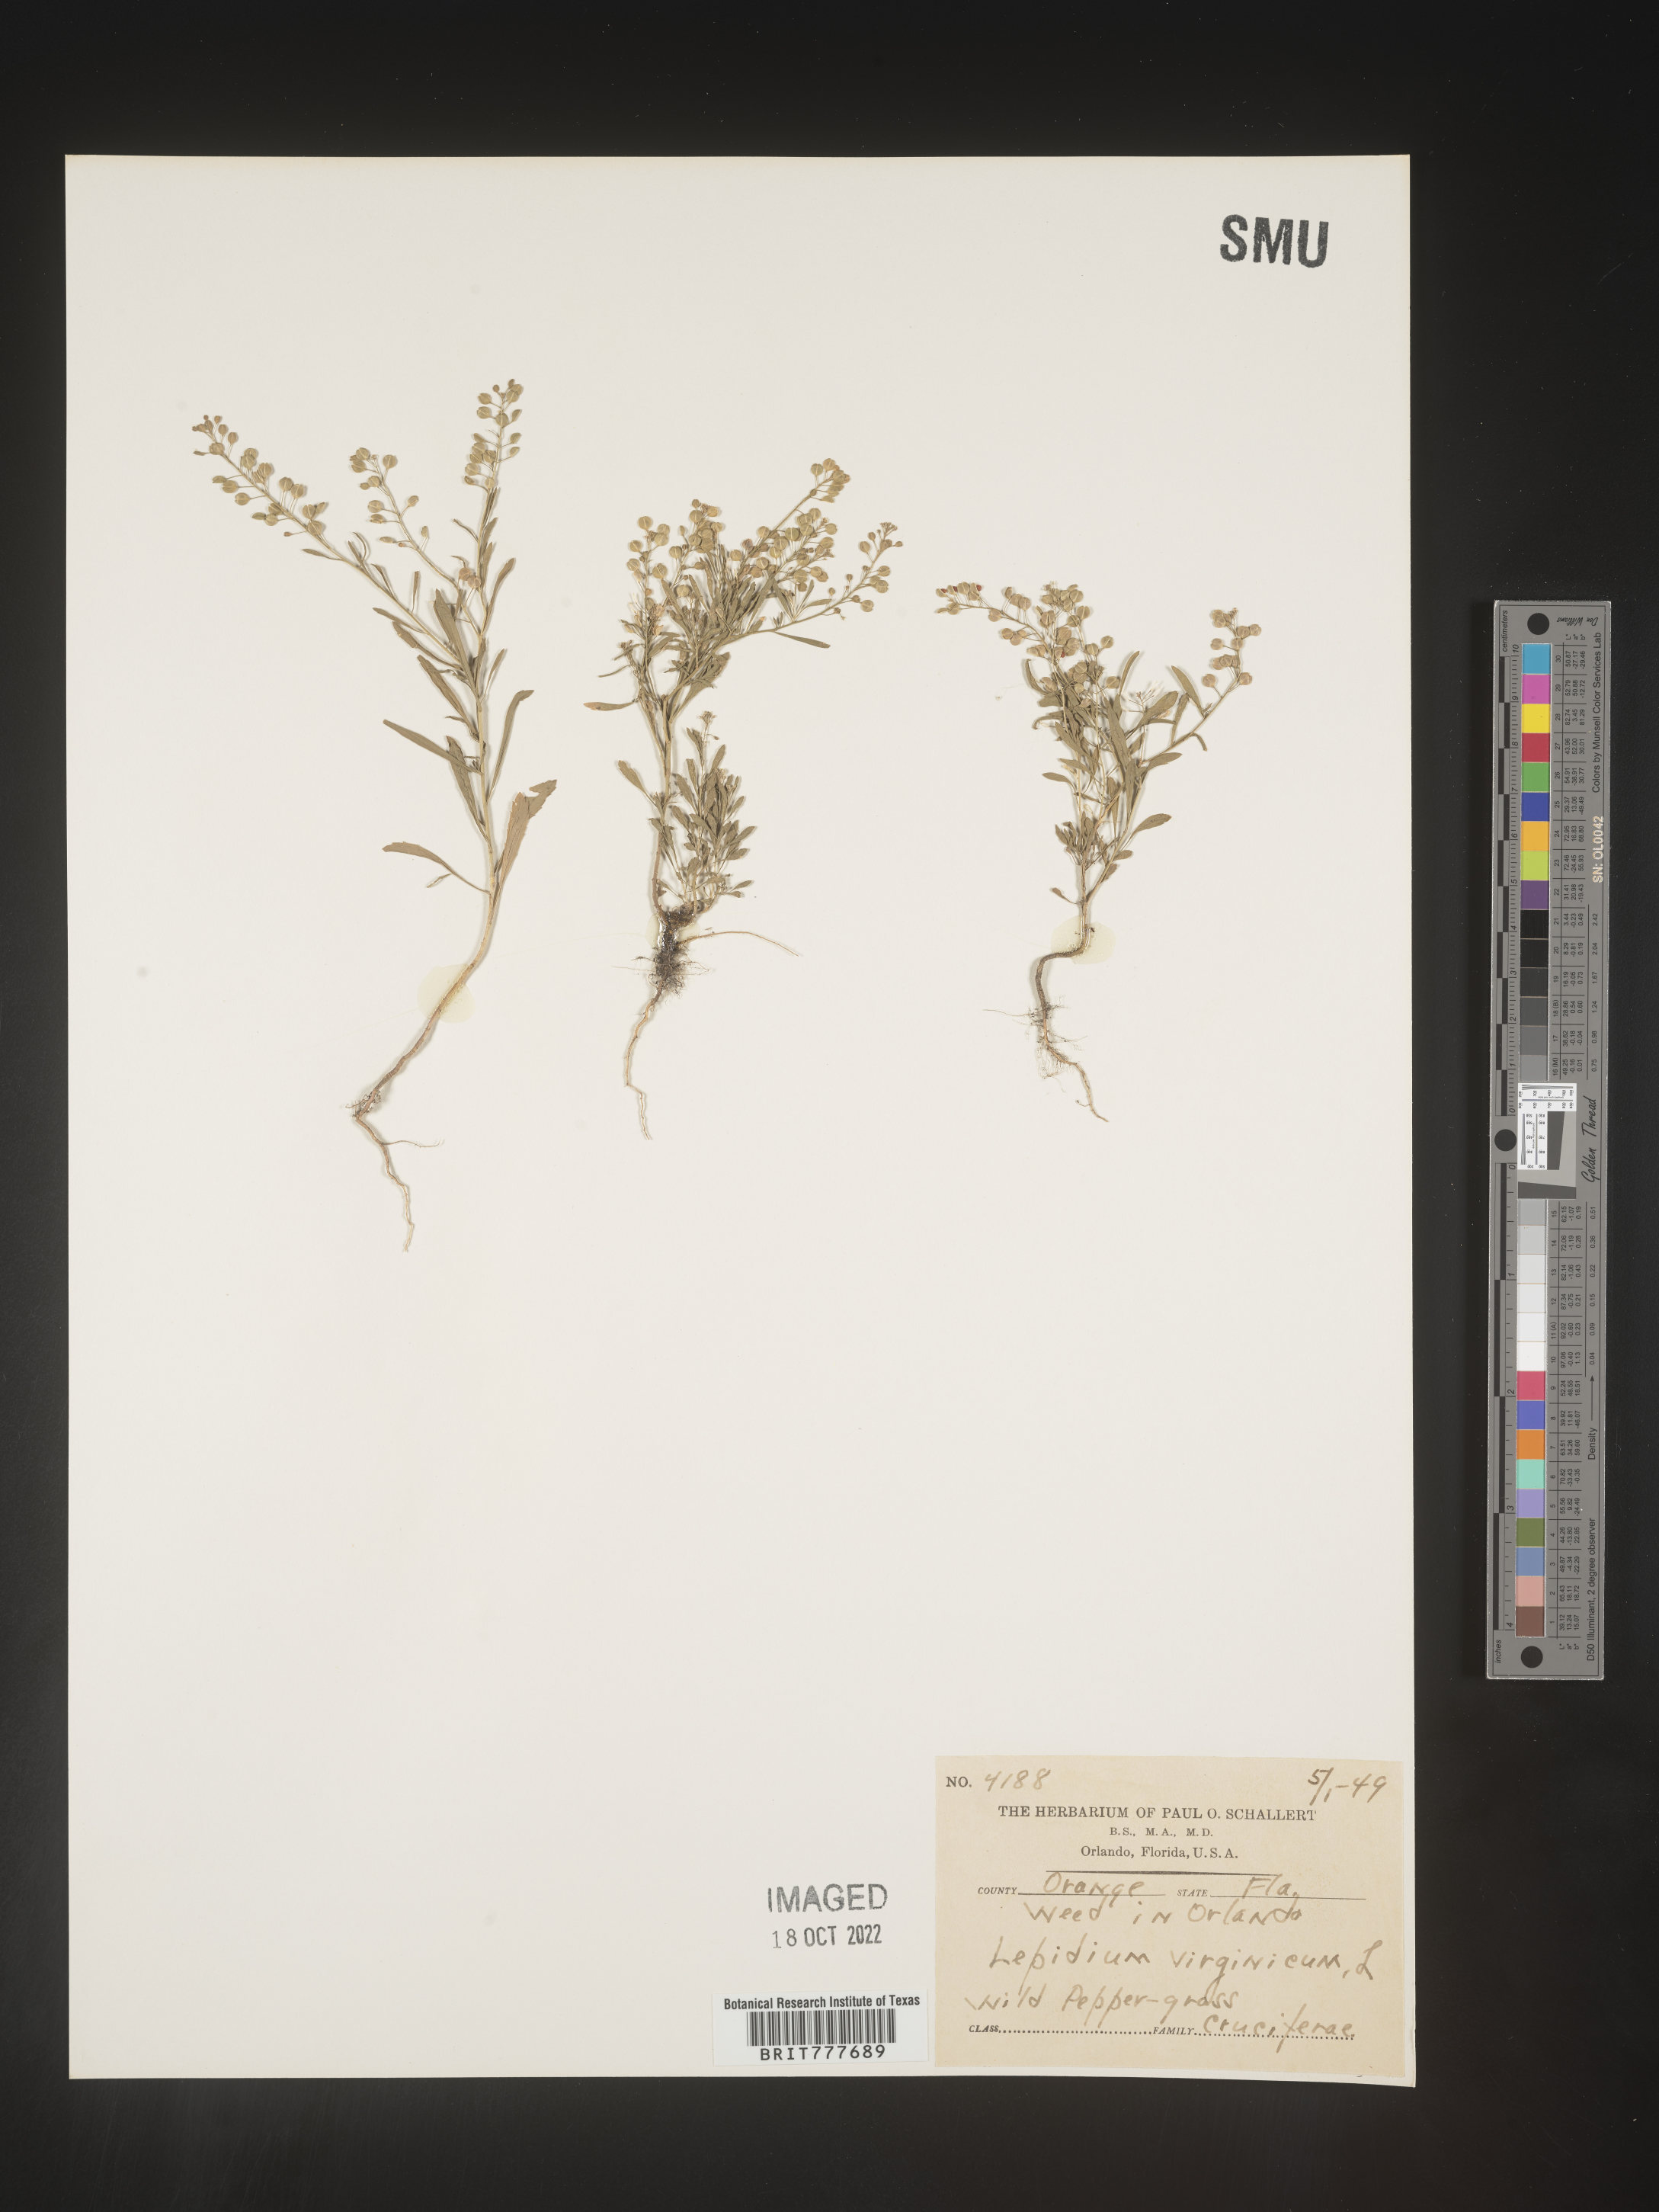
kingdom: Plantae
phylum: Tracheophyta
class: Magnoliopsida
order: Brassicales
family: Brassicaceae
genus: Lepidium
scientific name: Lepidium virginicum
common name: Least pepperwort
